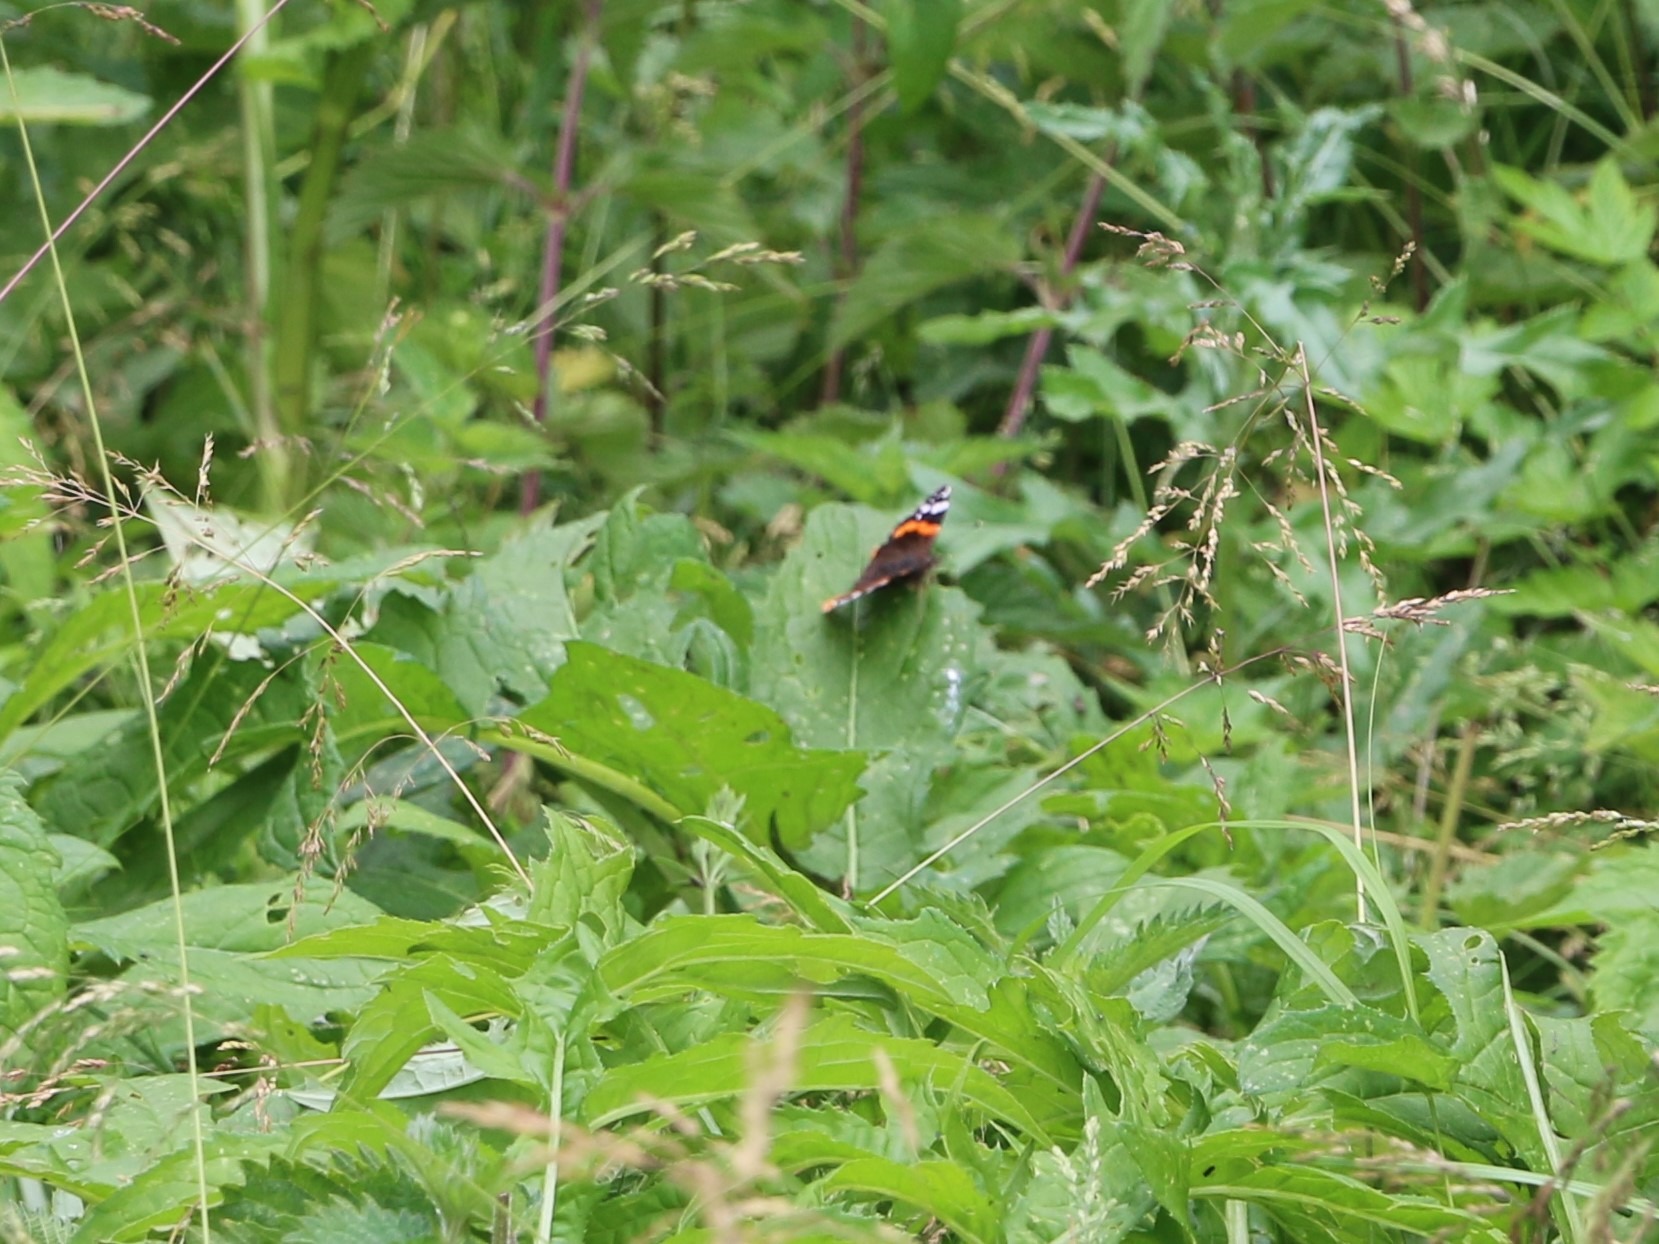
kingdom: Animalia
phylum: Arthropoda
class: Insecta
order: Lepidoptera
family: Nymphalidae
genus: Vanessa
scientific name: Vanessa atalanta
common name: Admiral
